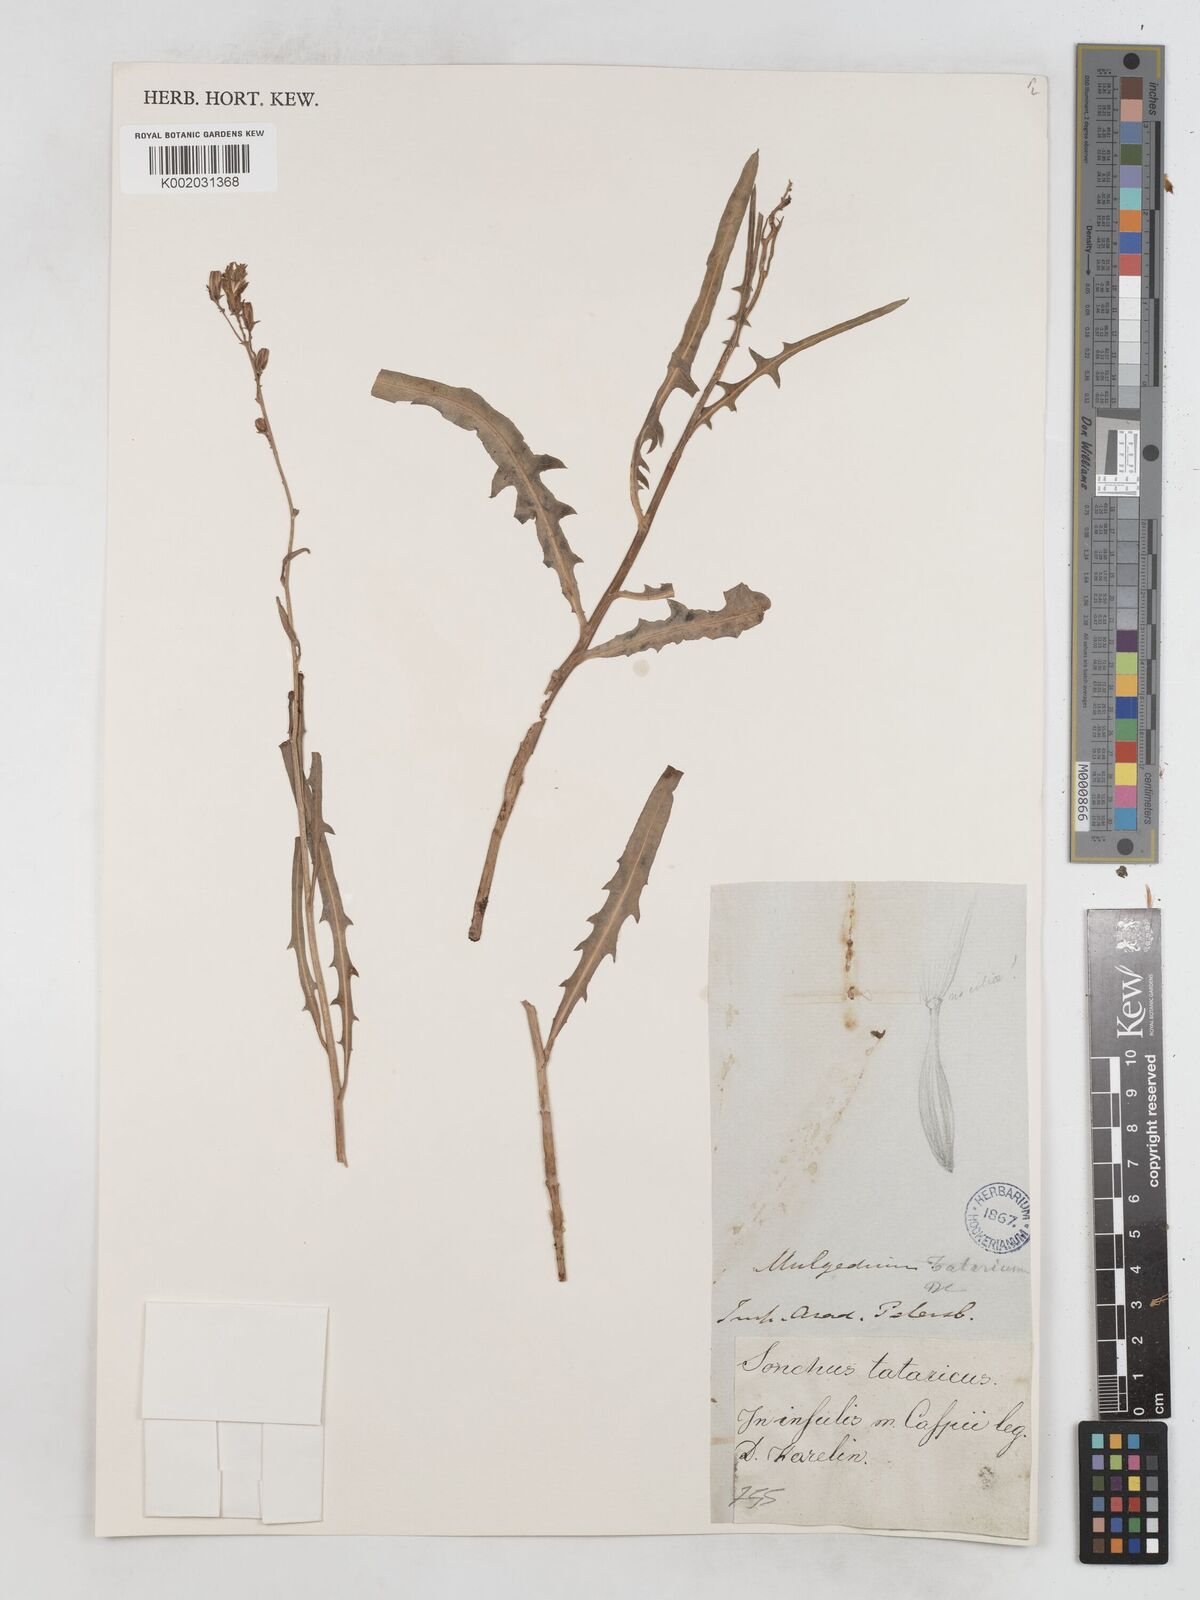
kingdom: Plantae
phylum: Tracheophyta
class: Magnoliopsida
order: Asterales
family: Asteraceae
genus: Lactuca
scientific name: Lactuca tatarica
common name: Blue lettuce
